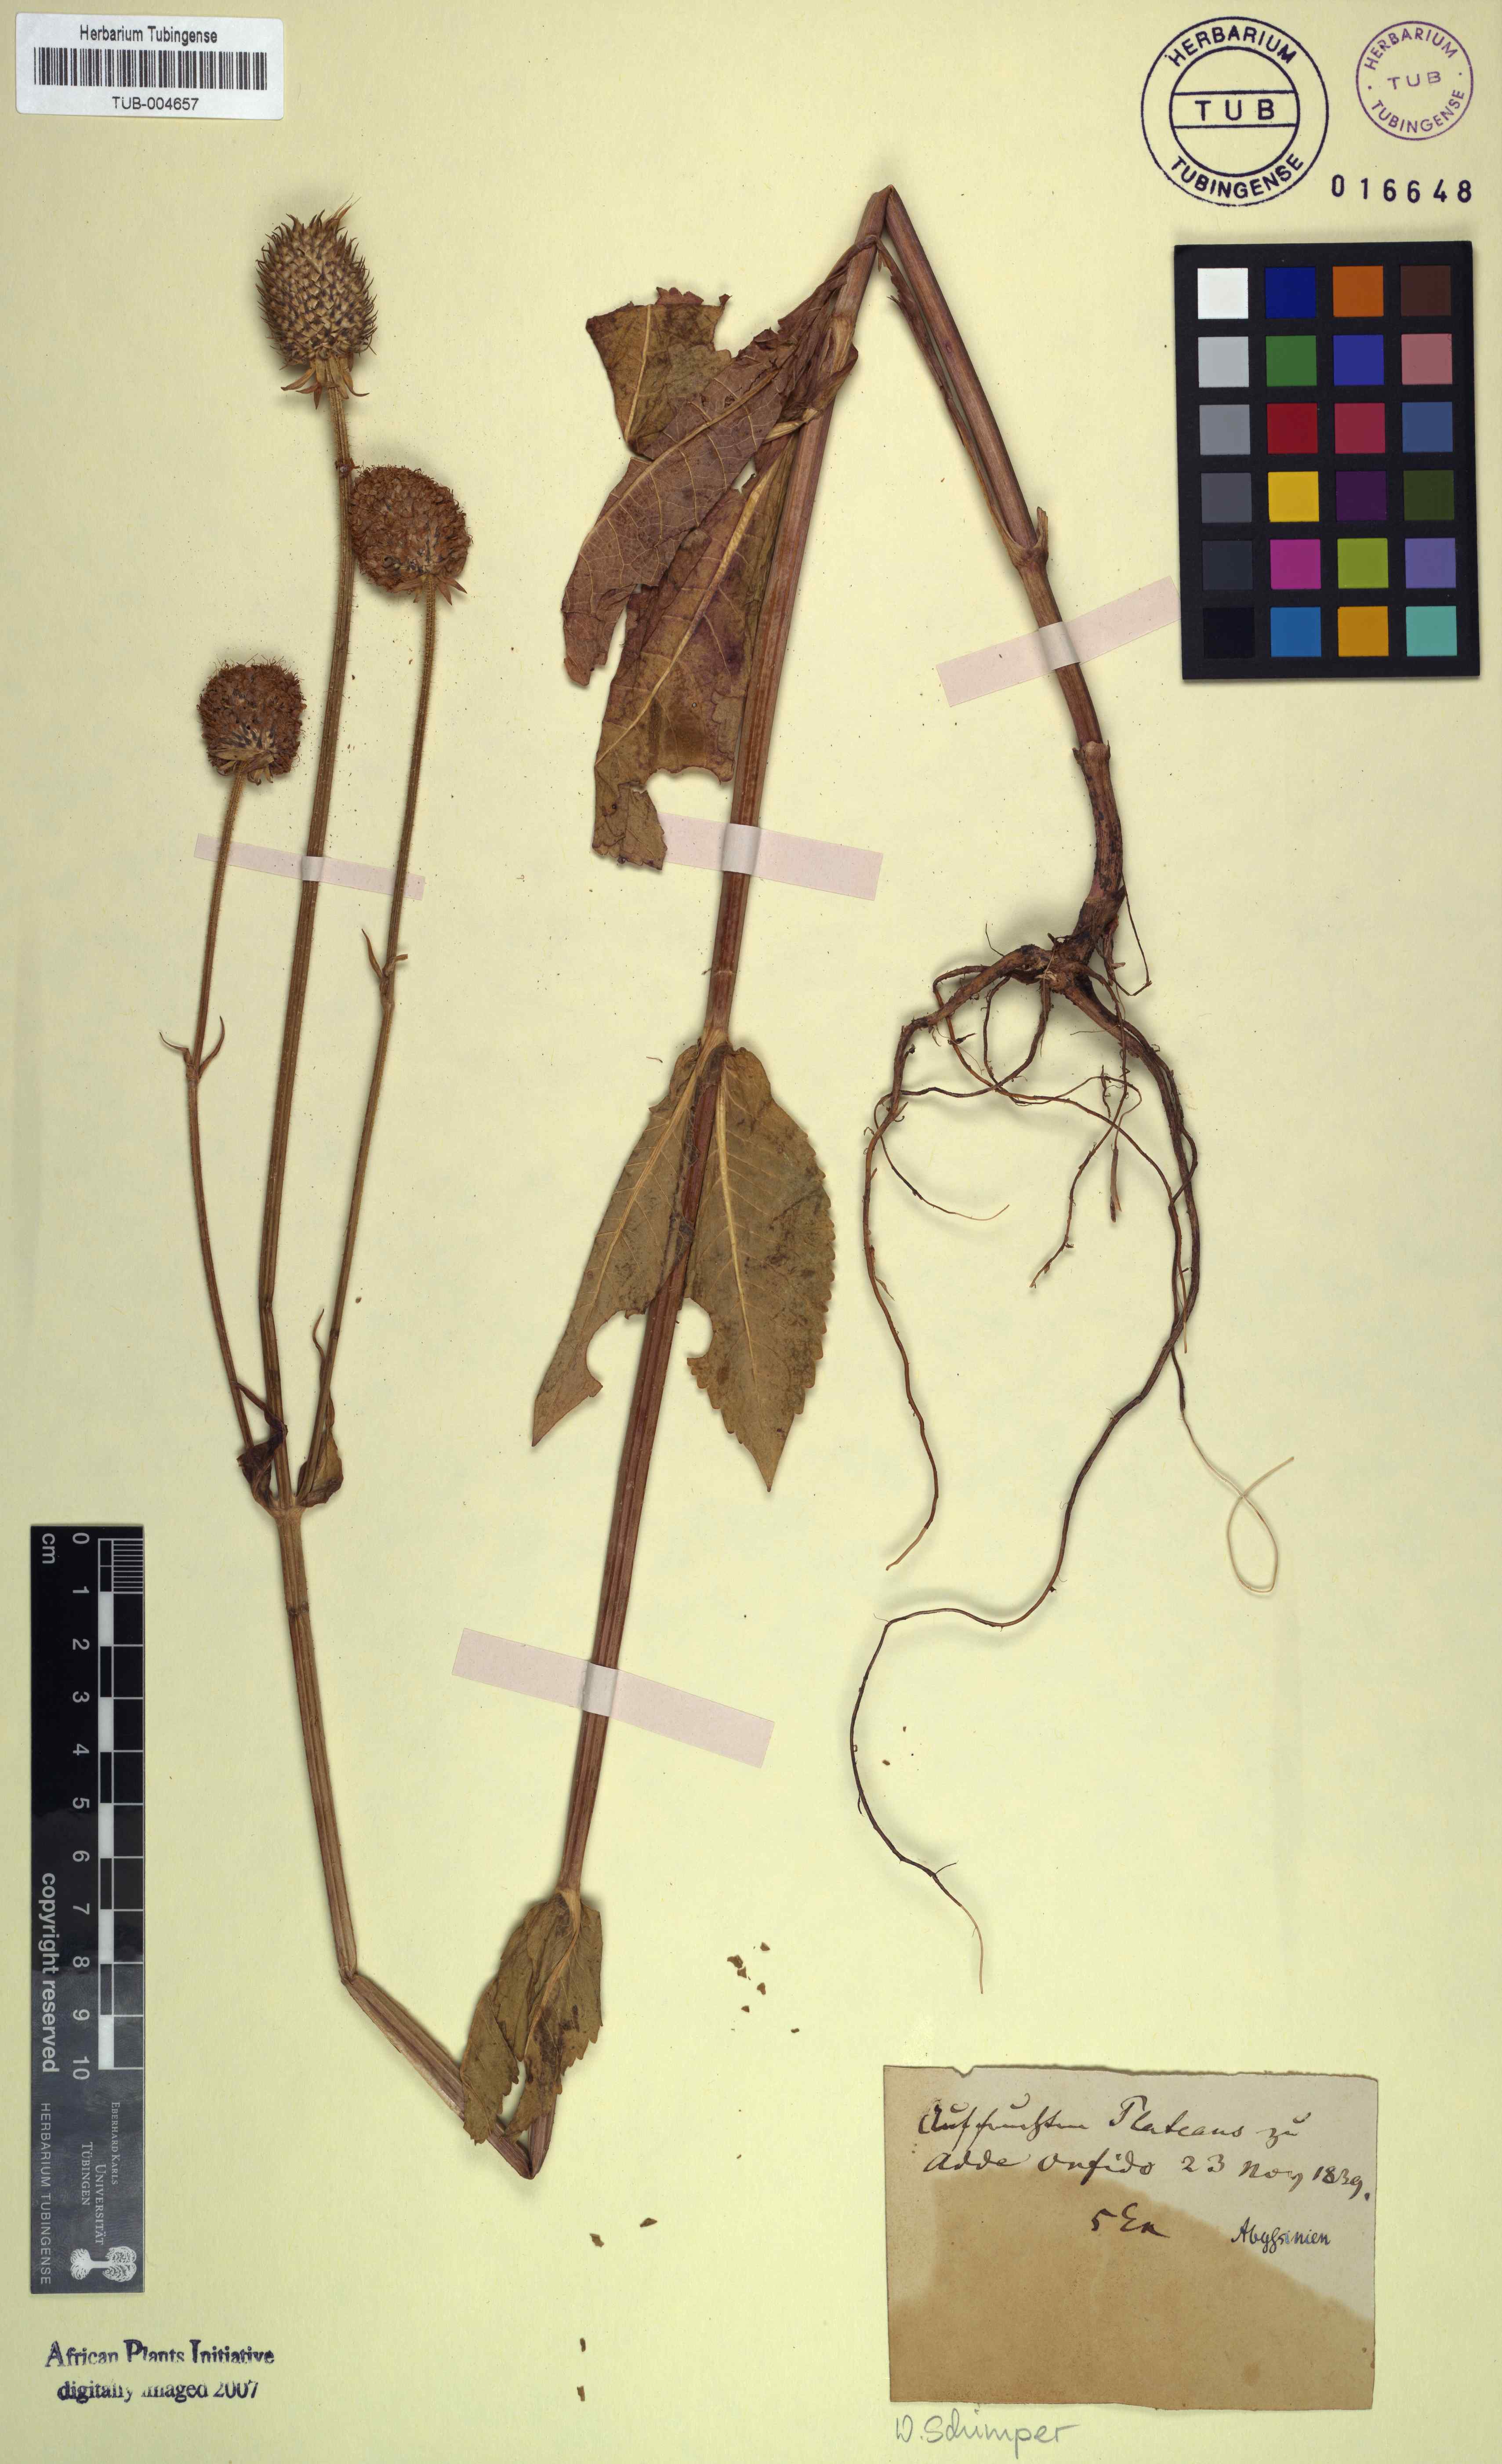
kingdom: Plantae
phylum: Tracheophyta
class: Magnoliopsida
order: Dipsacales
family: Caprifoliaceae
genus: Dipsacus
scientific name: Dipsacus
